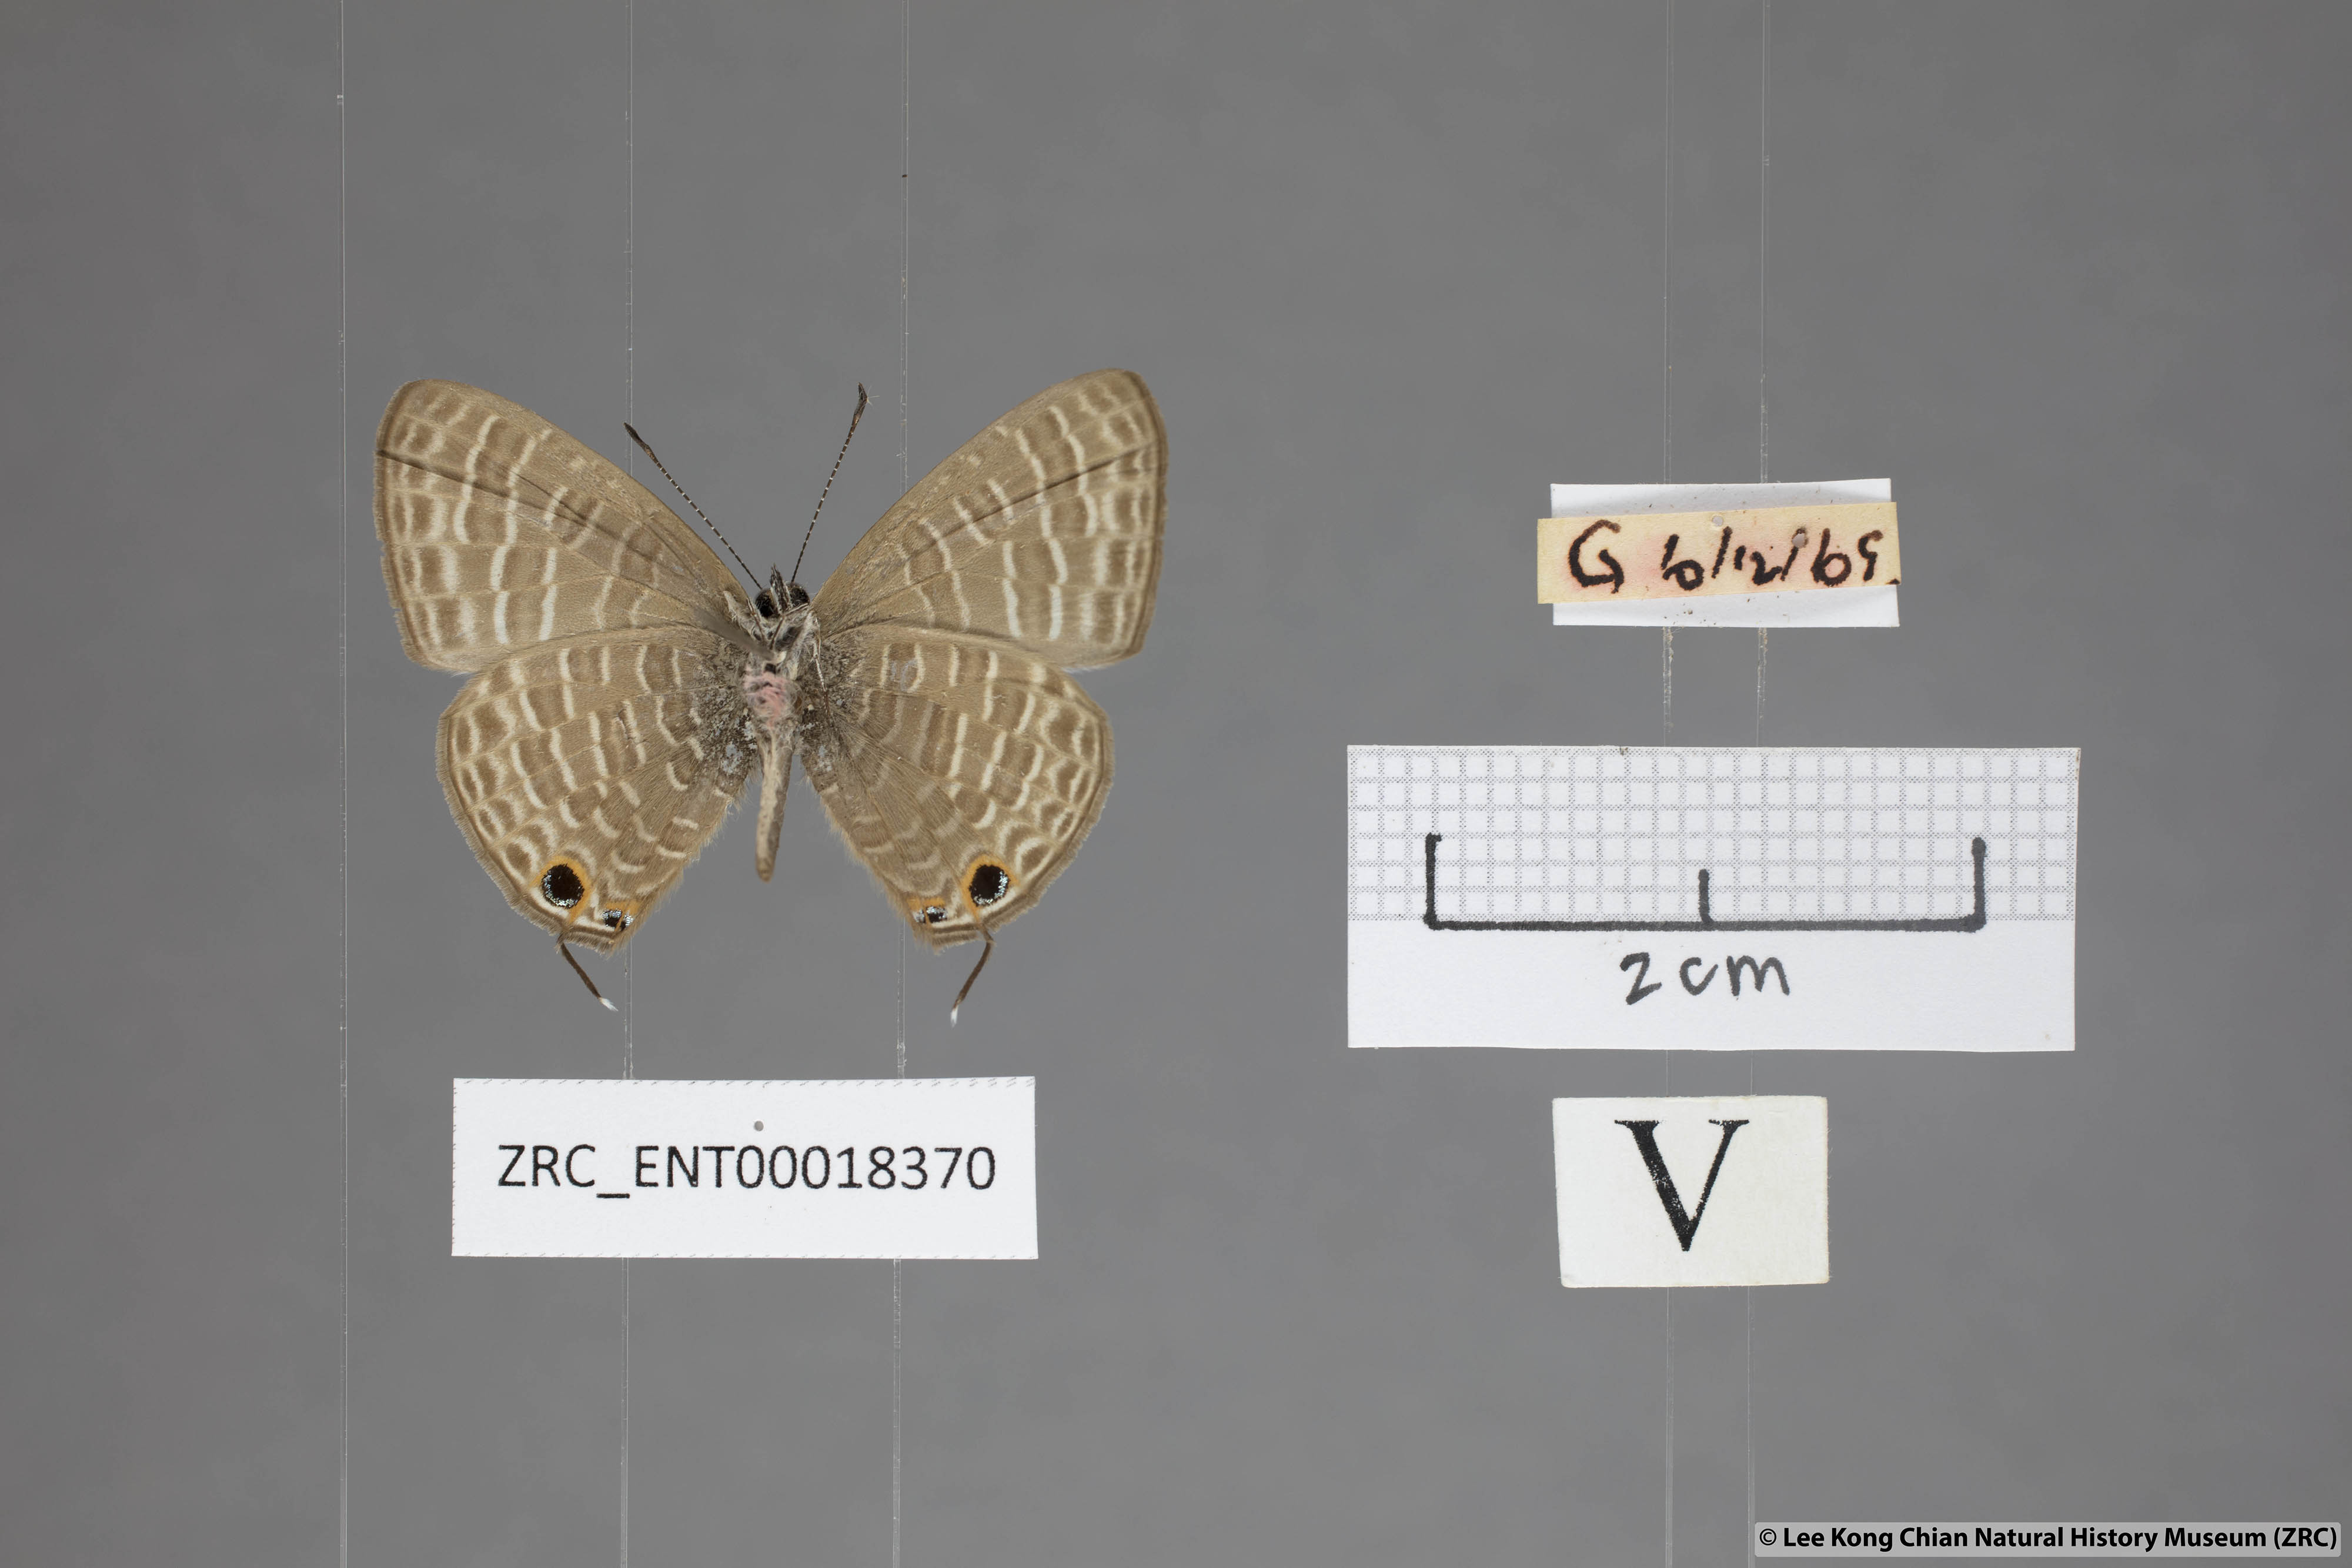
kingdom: Animalia
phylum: Arthropoda
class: Insecta
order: Lepidoptera
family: Lycaenidae
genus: Nacaduba
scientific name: Nacaduba kurava
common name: Transparent 6-line blue
